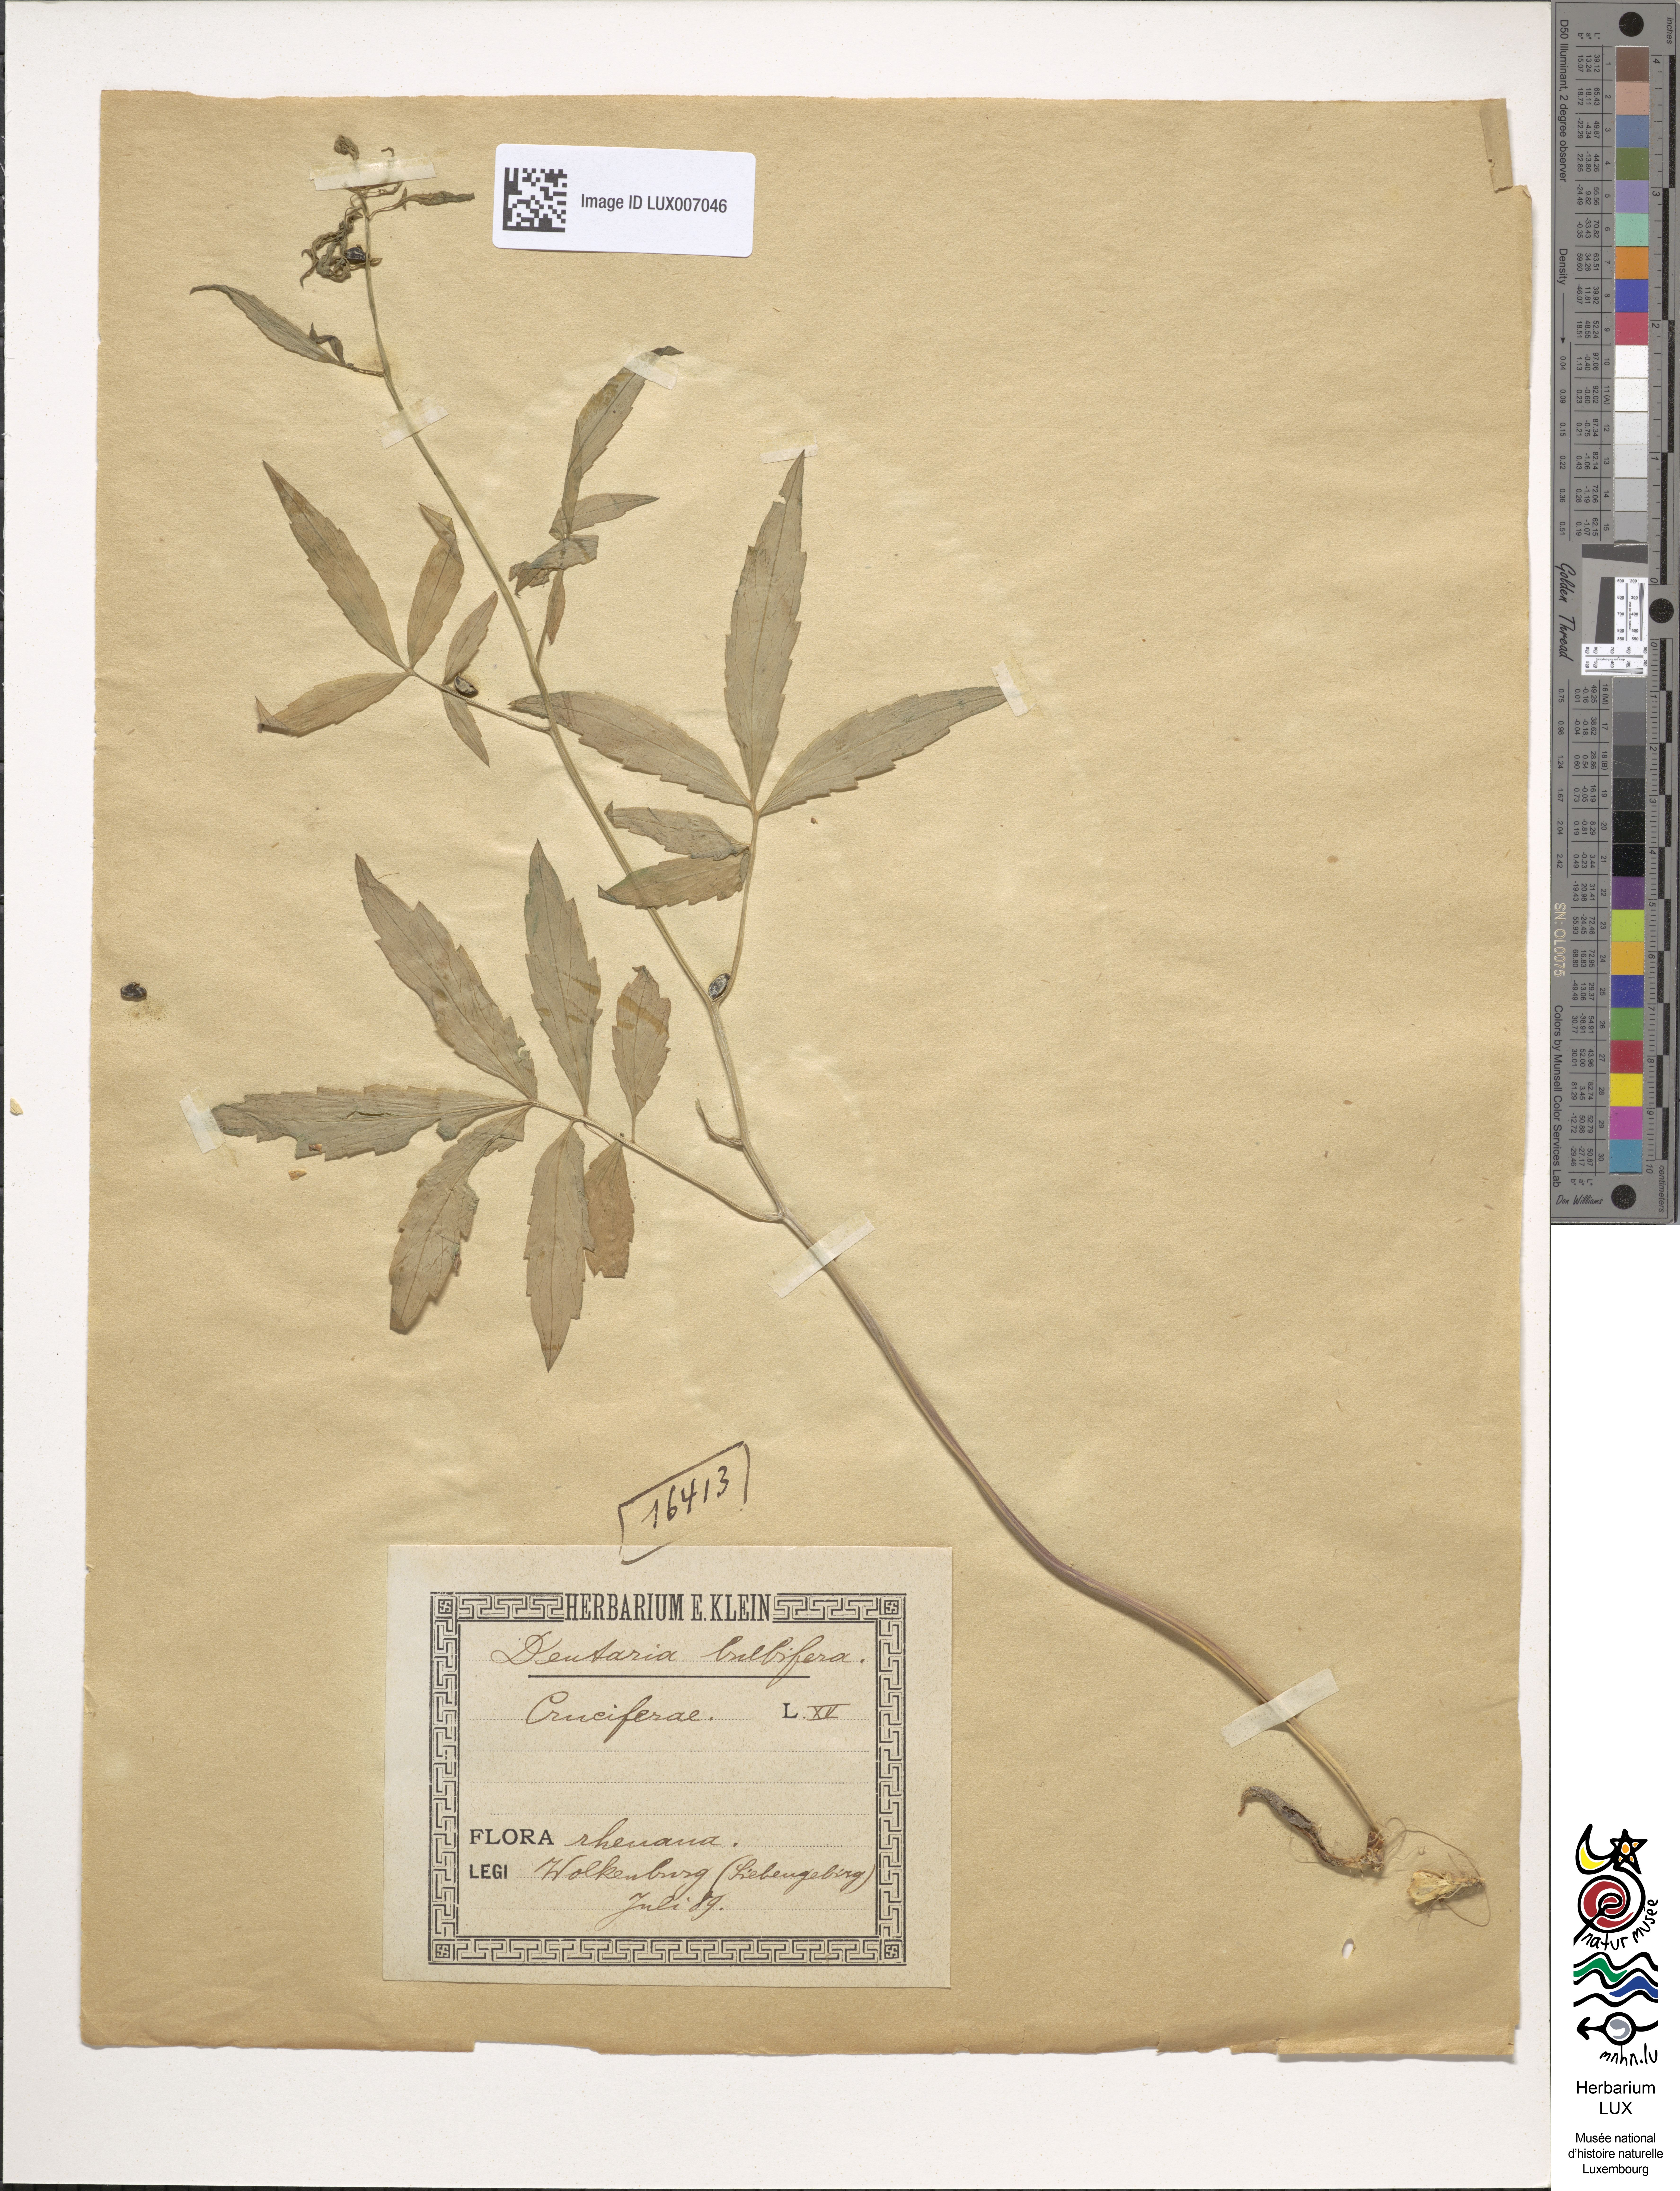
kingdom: Plantae
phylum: Tracheophyta
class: Magnoliopsida
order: Brassicales
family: Brassicaceae
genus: Cardamine
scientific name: Cardamine bulbifera
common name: Coralroot bittercress
